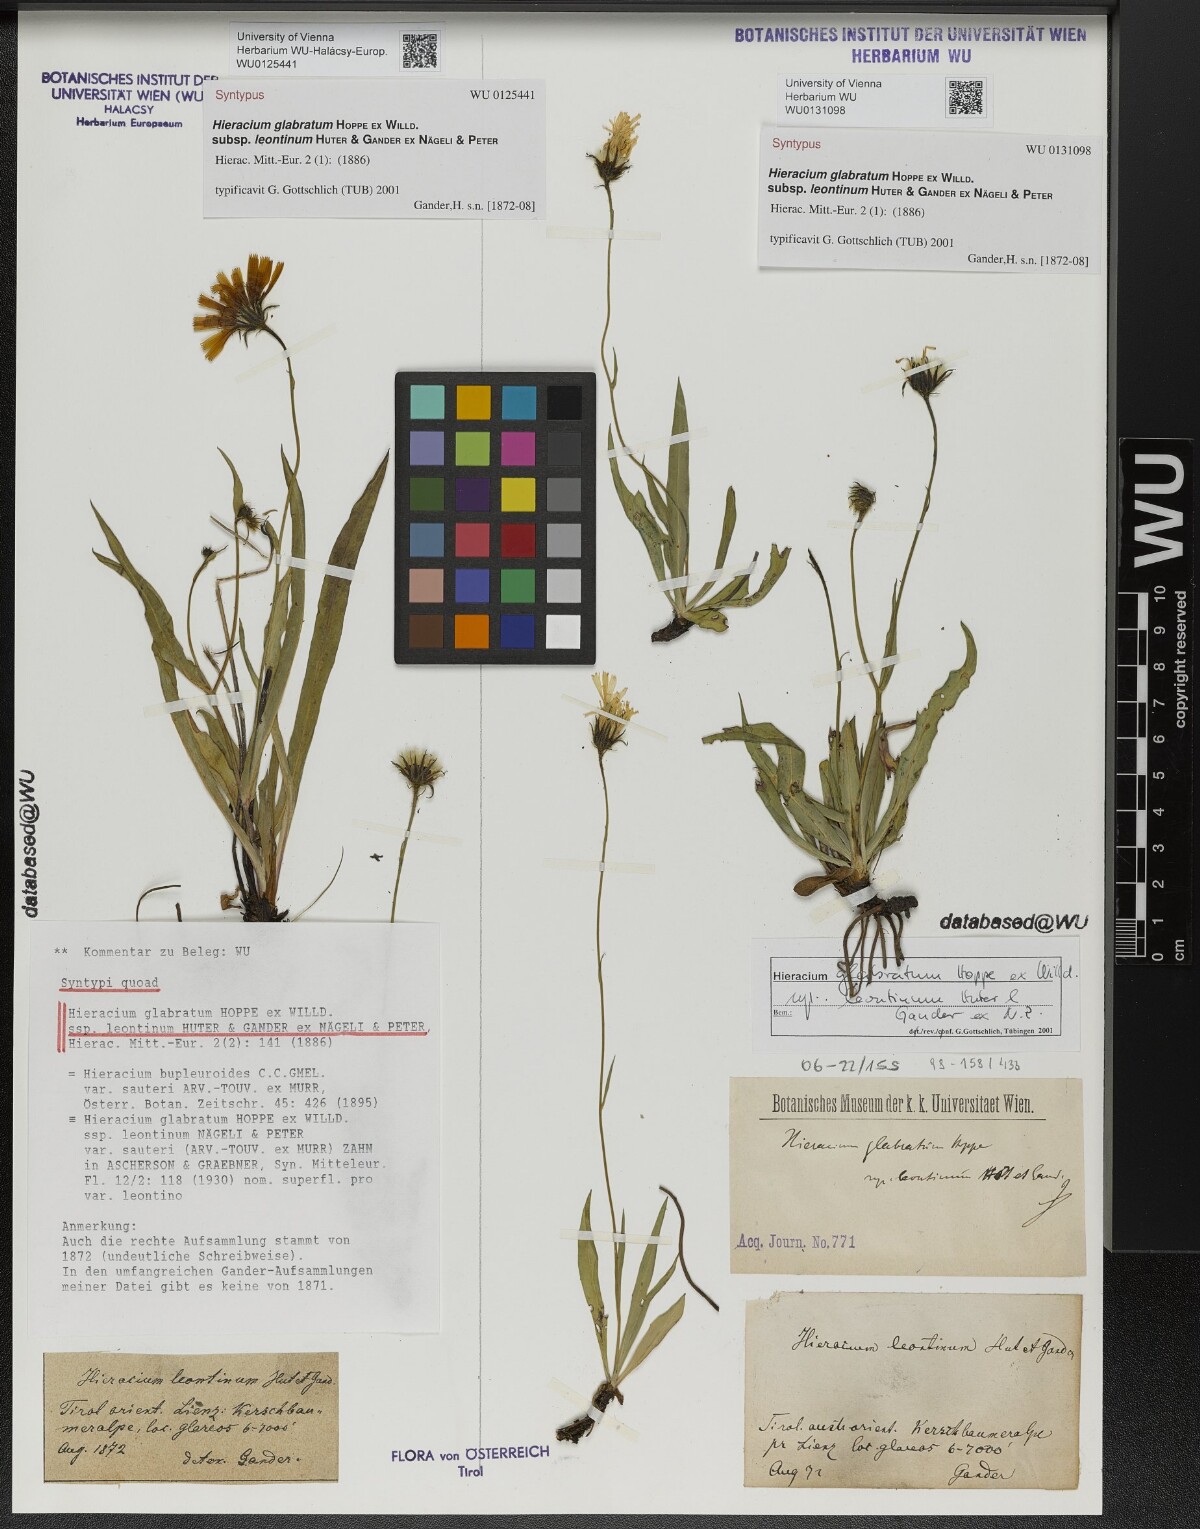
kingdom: Plantae
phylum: Tracheophyta
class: Magnoliopsida
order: Asterales
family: Asteraceae
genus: Hieracium
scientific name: Hieracium glabratum
